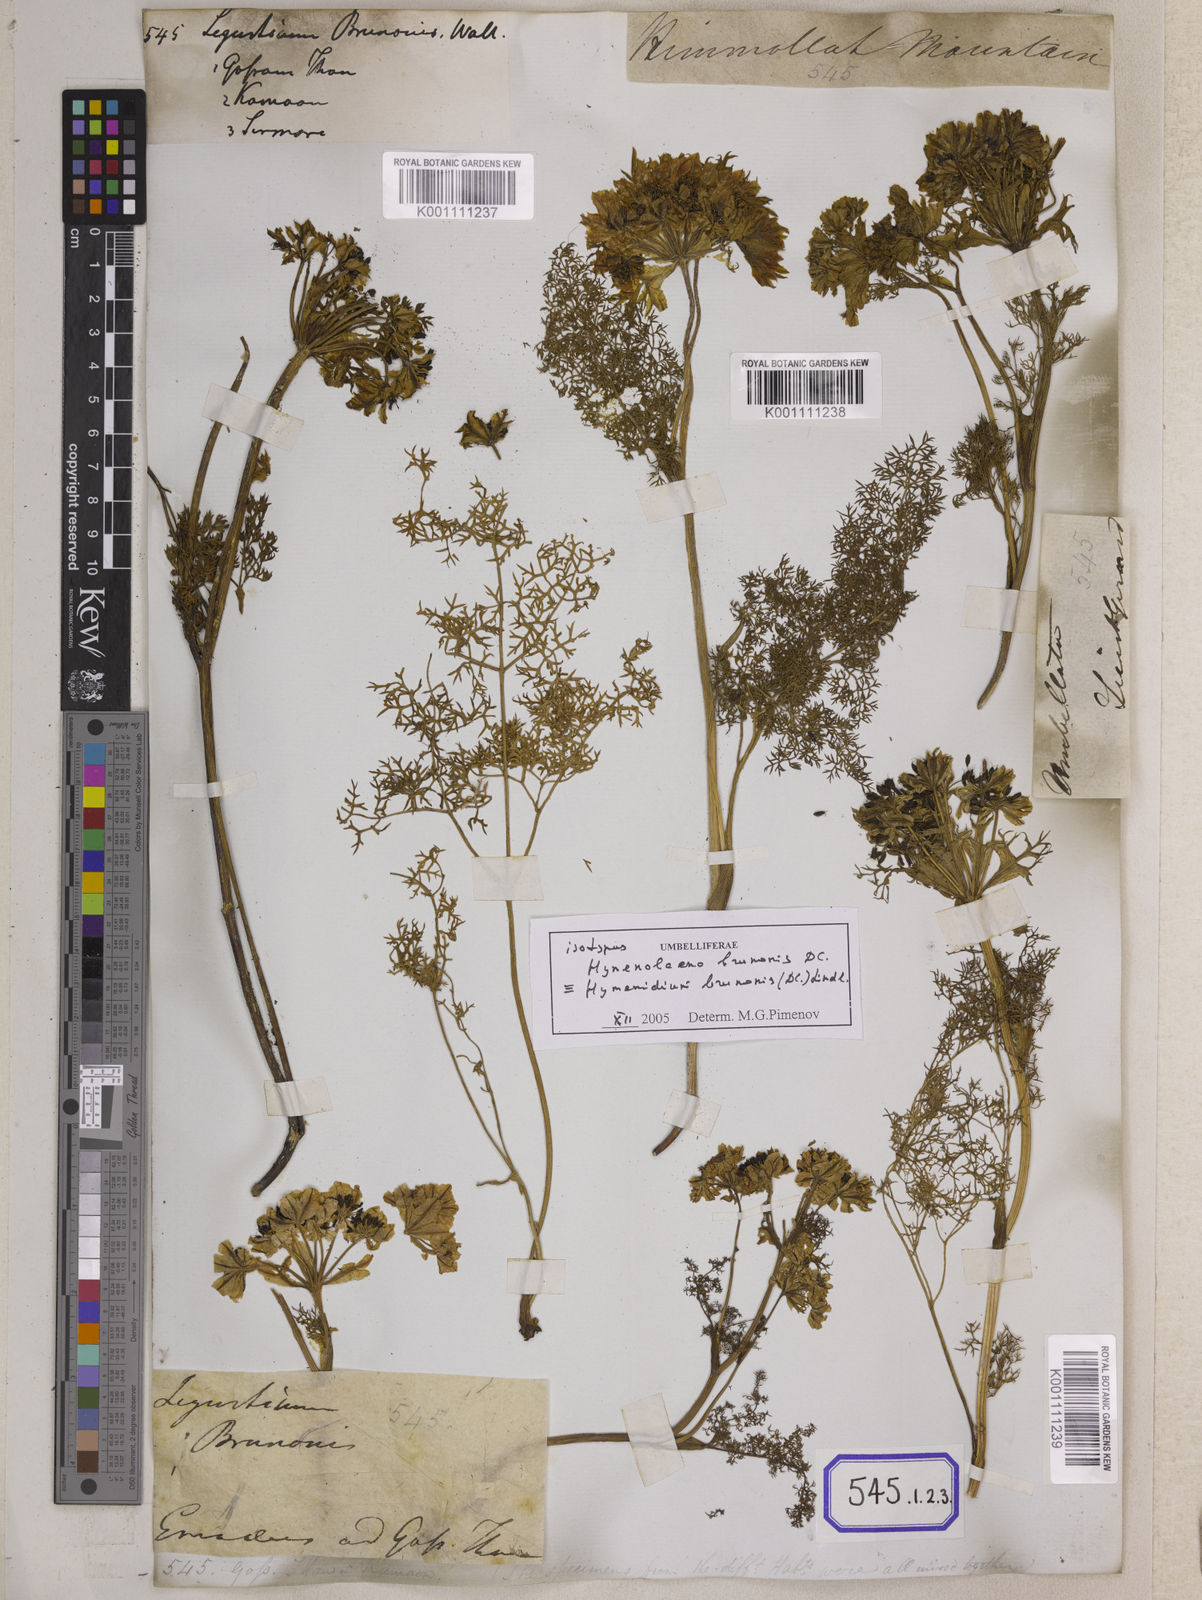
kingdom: Plantae
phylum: Tracheophyta
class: Magnoliopsida
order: Apiales
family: Apiaceae
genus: Hymenidium
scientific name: Hymenidium brunonis
